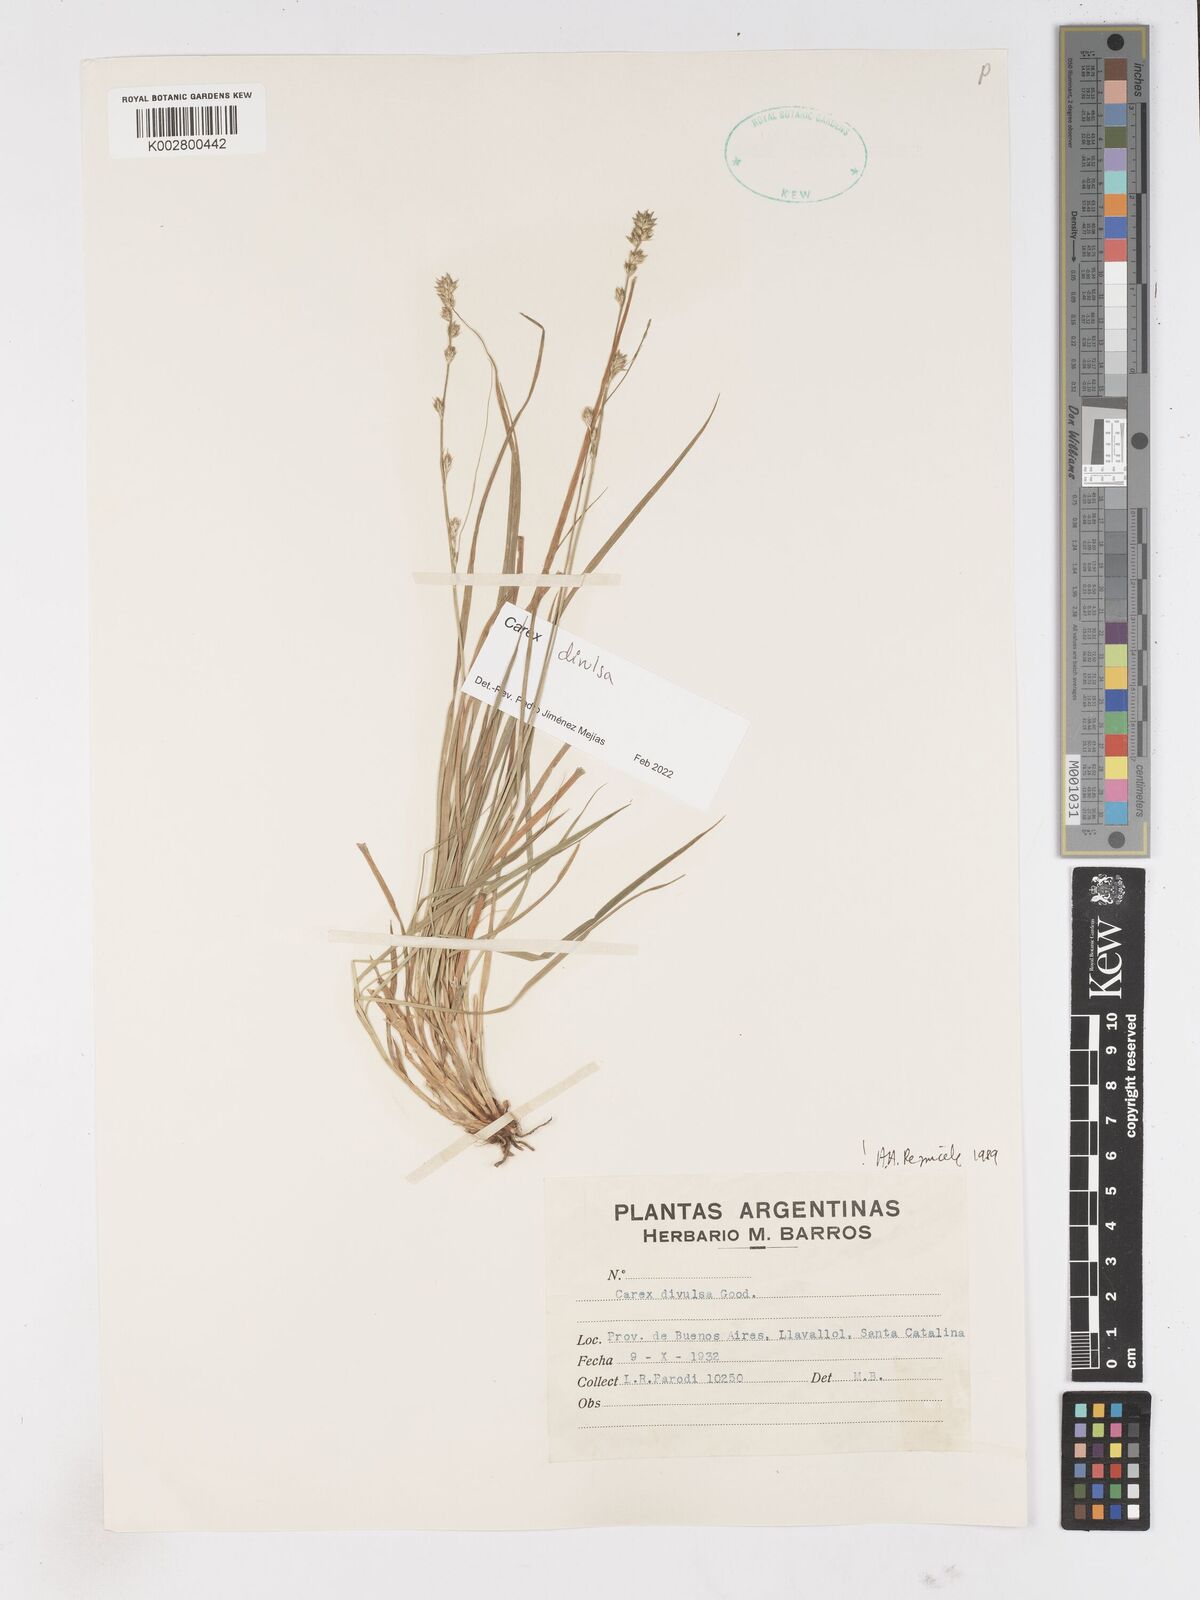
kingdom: Plantae
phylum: Tracheophyta
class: Liliopsida
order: Poales
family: Cyperaceae
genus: Carex
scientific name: Carex divulsa
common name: Grassland sedge
